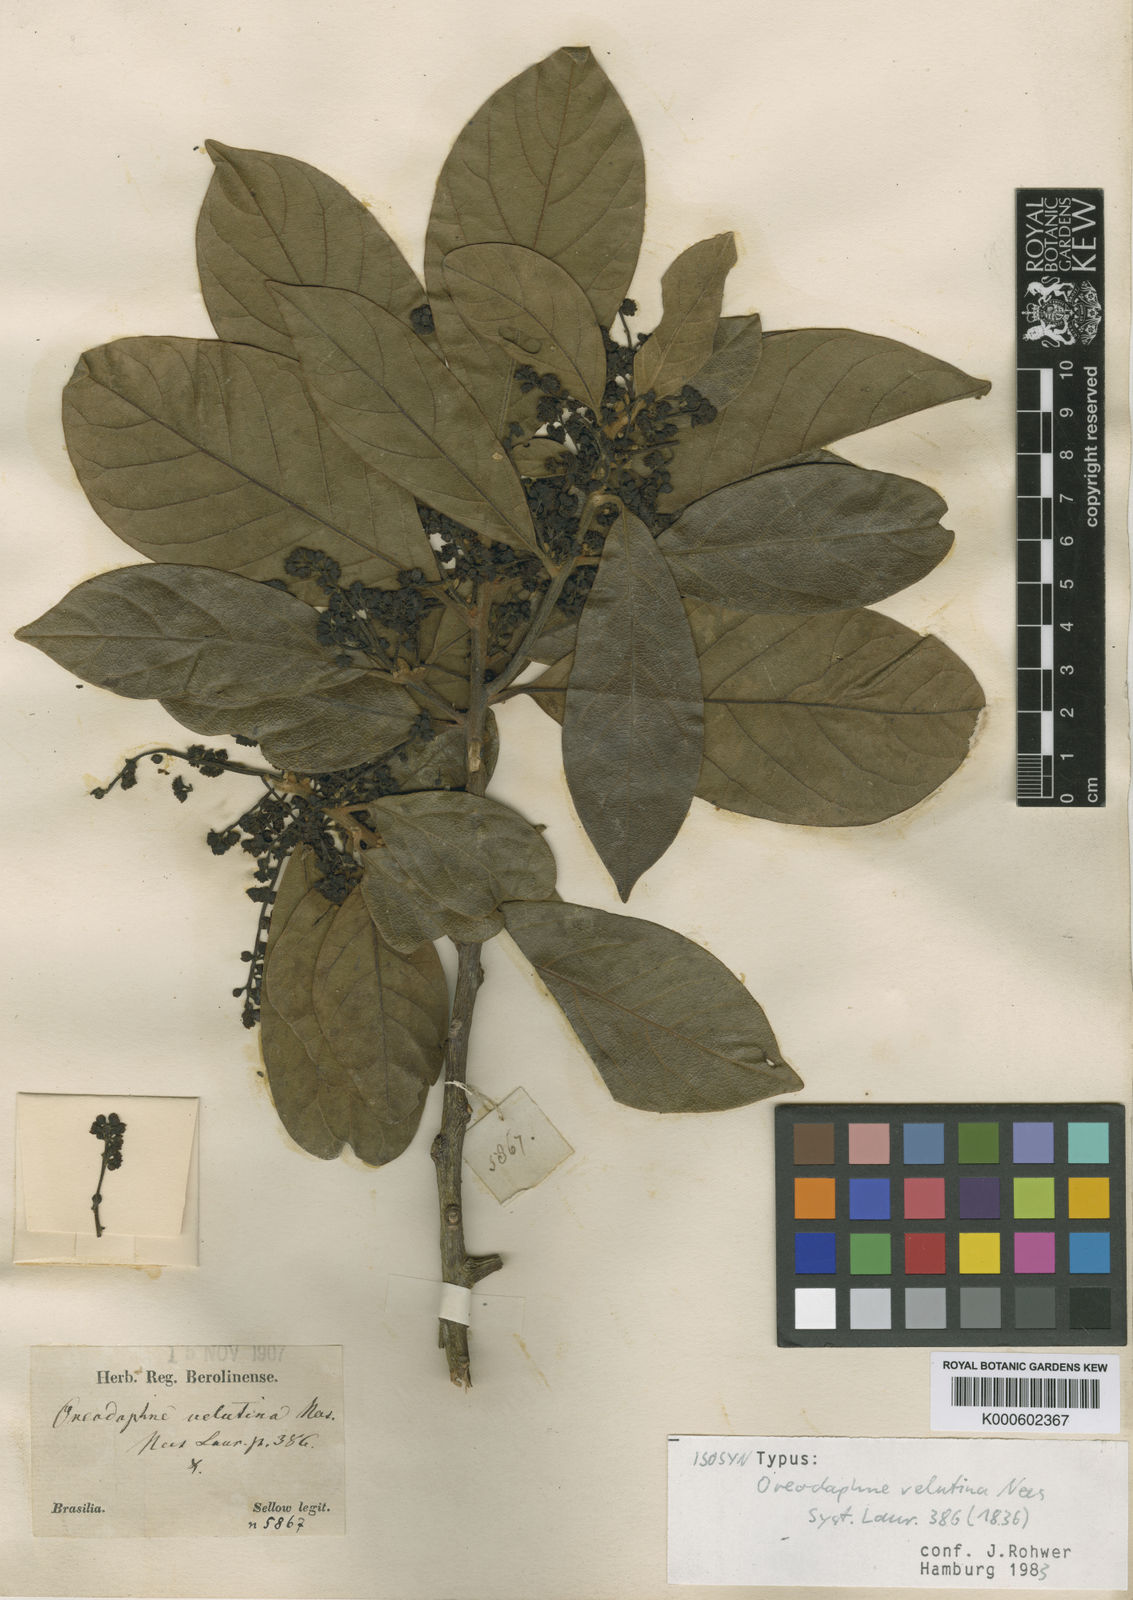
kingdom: Plantae
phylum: Tracheophyta
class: Magnoliopsida
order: Laurales
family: Lauraceae
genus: Ocotea
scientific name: Ocotea macropoda
